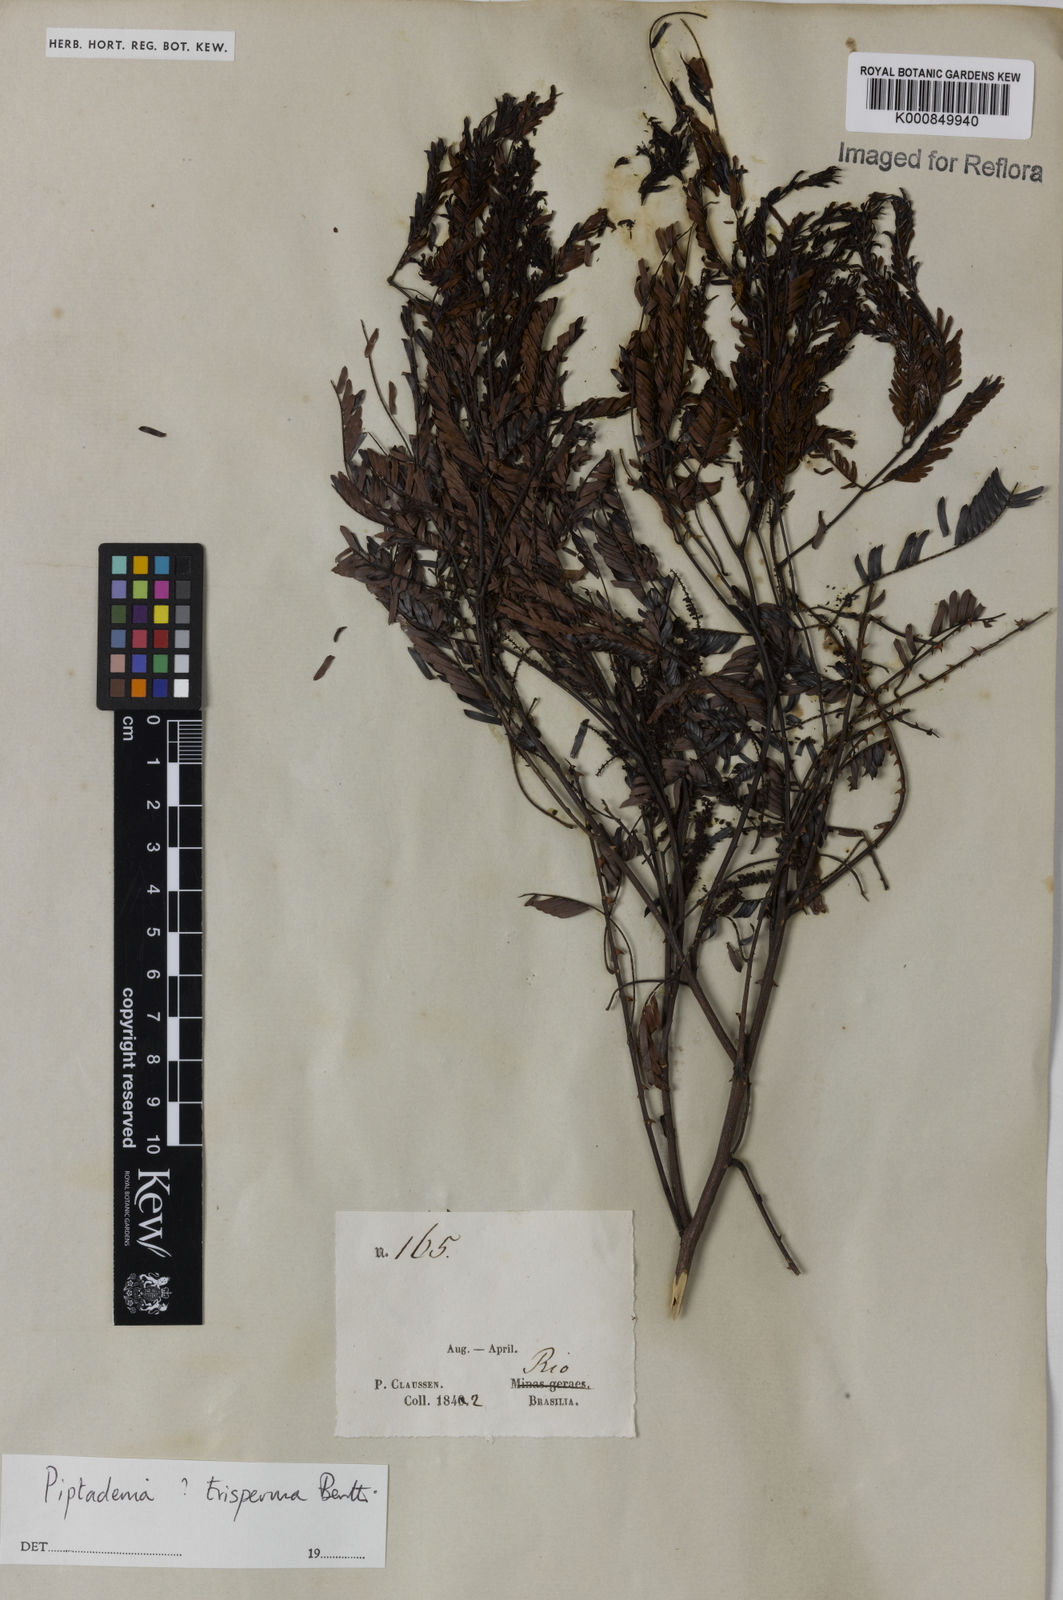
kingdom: Plantae
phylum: Tracheophyta
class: Magnoliopsida
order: Fabales
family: Fabaceae
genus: Piptadenia
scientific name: Piptadenia trisperma
